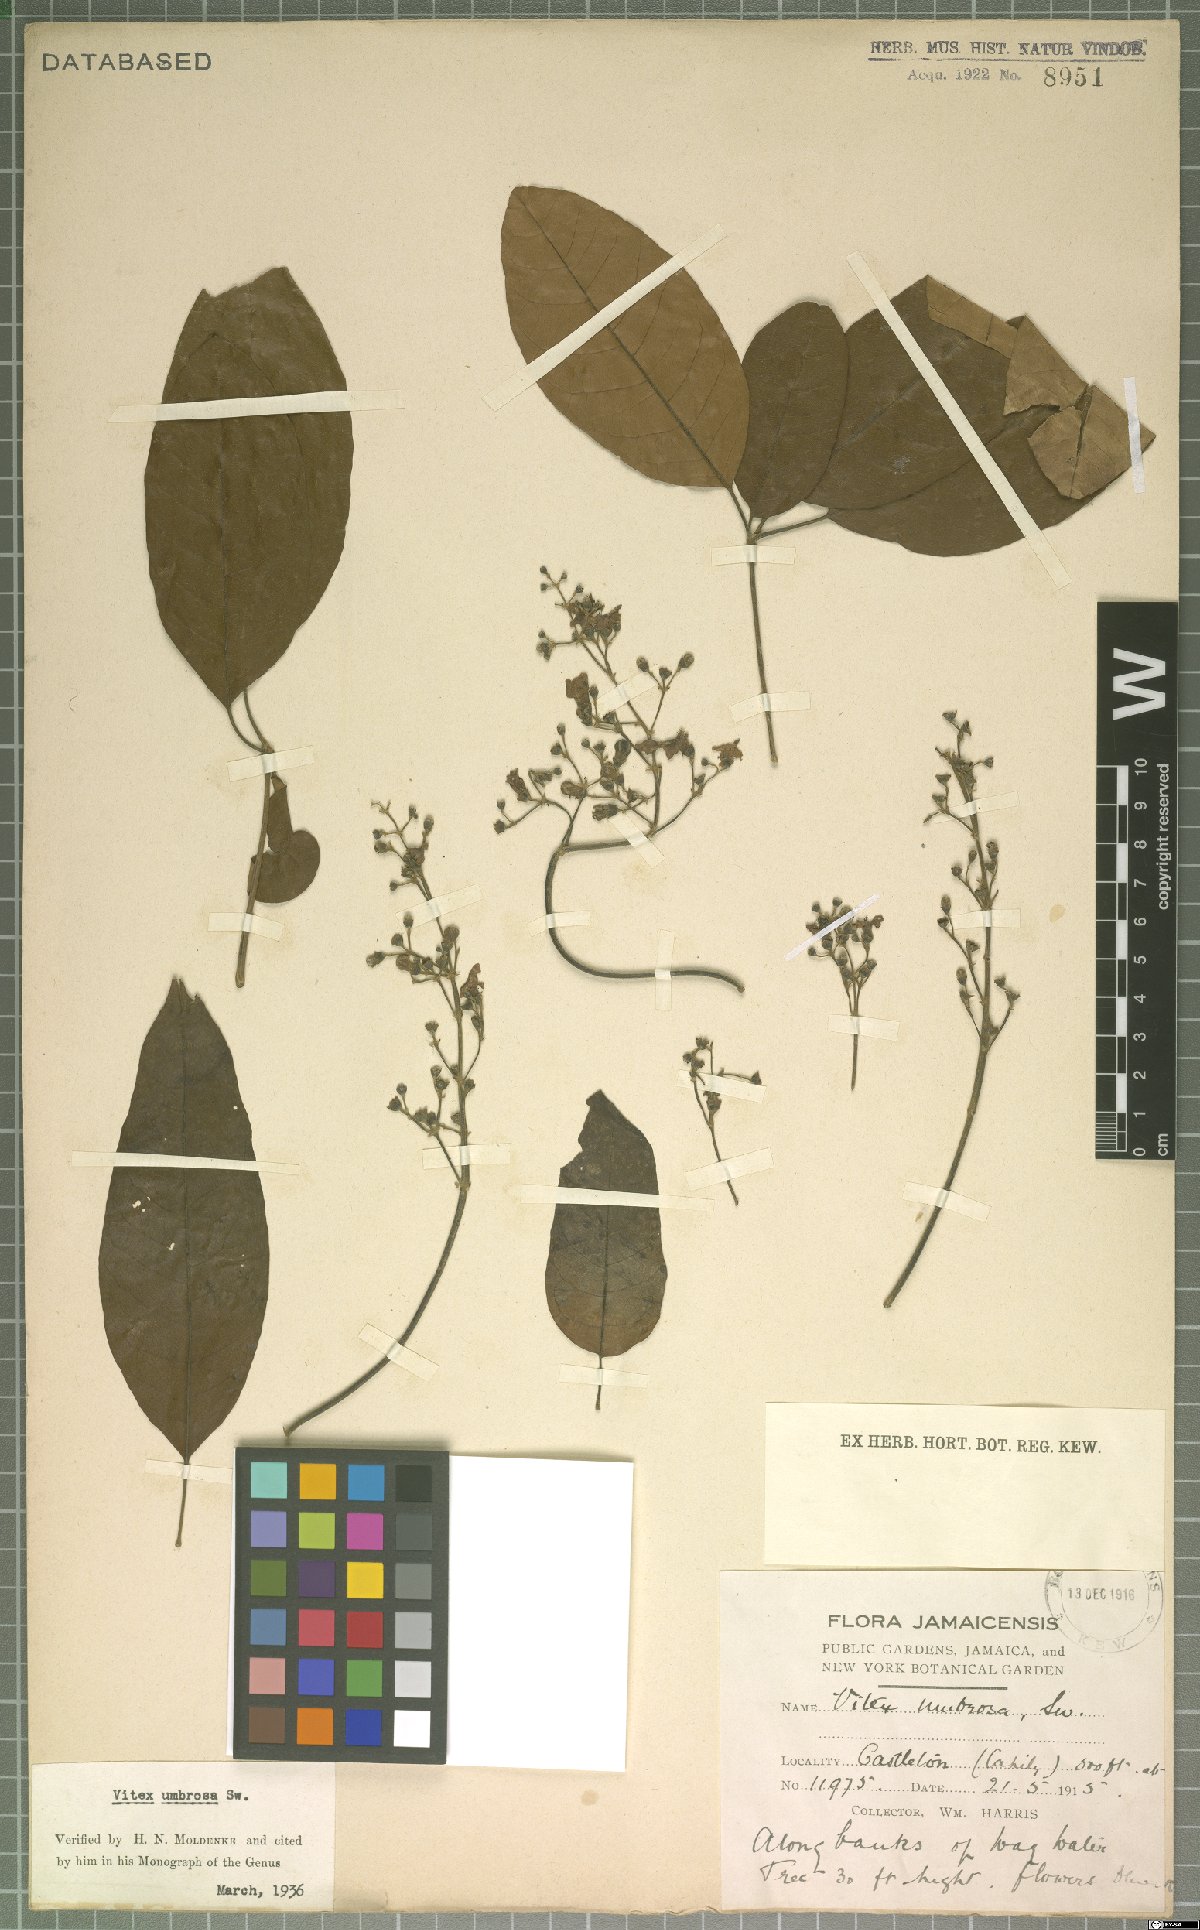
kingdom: Plantae
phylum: Tracheophyta
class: Magnoliopsida
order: Lamiales
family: Lamiaceae
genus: Vitex
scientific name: Vitex umbrosa
